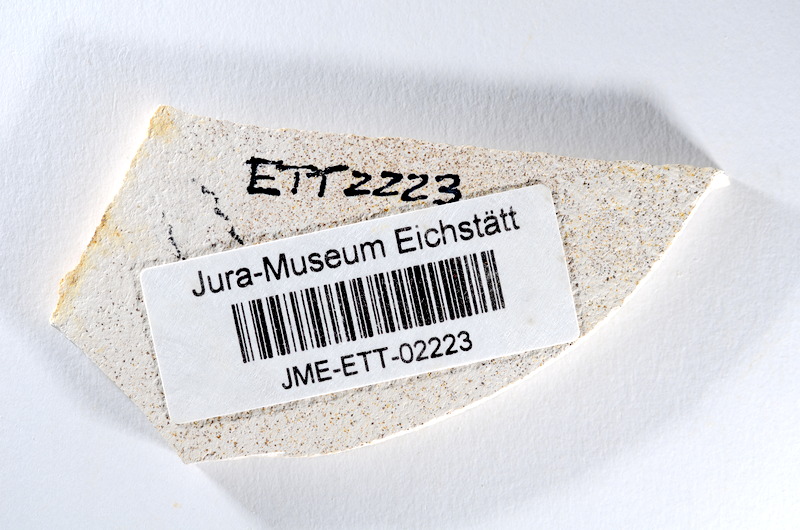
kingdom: Animalia
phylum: Chordata
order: Salmoniformes
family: Orthogonikleithridae
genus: Orthogonikleithrus
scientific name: Orthogonikleithrus hoelli
